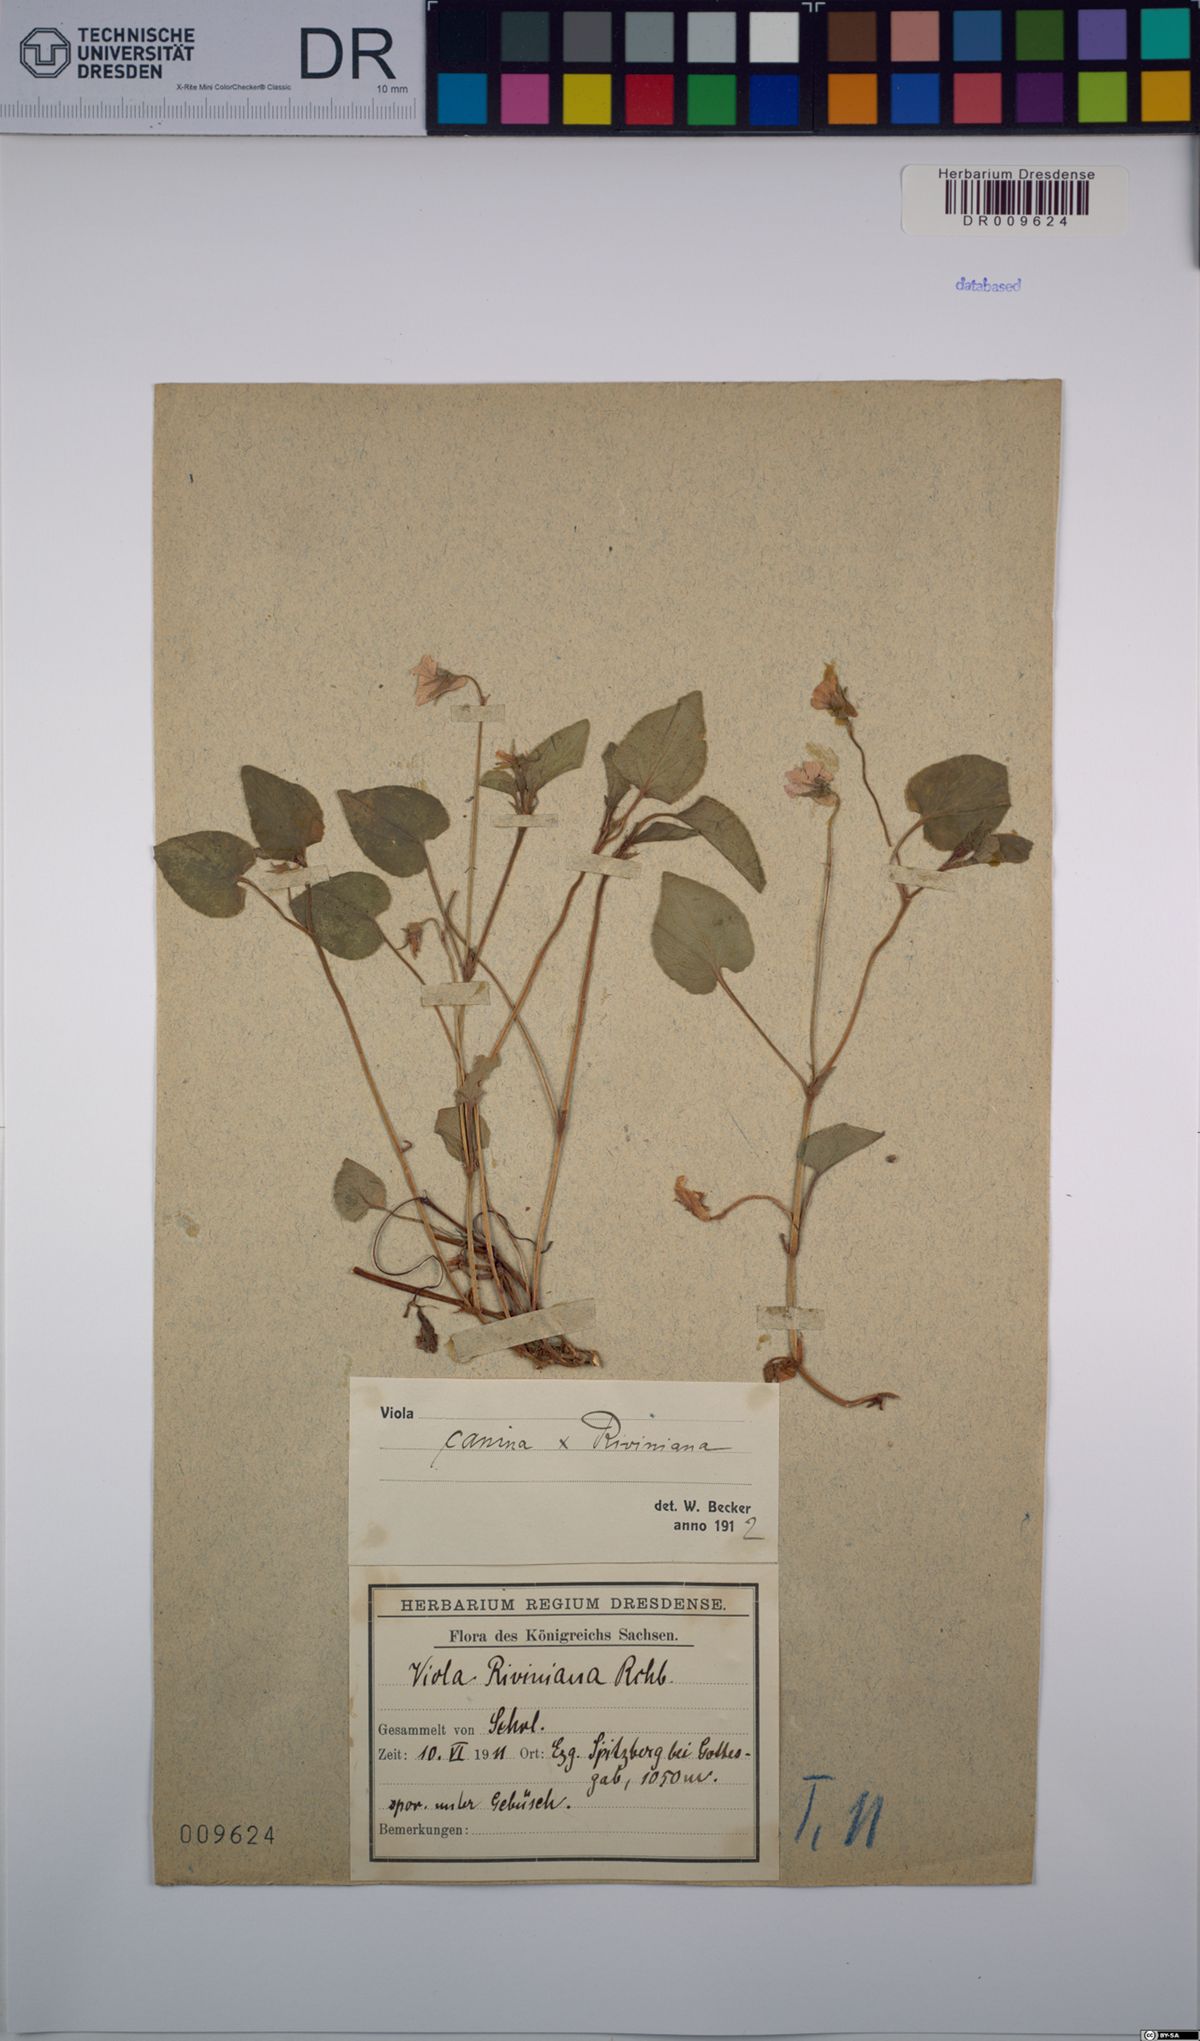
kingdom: Plantae
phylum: Tracheophyta
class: Magnoliopsida
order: Malpighiales
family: Violaceae
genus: Viola
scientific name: Viola riviniana
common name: Common dog-violet
